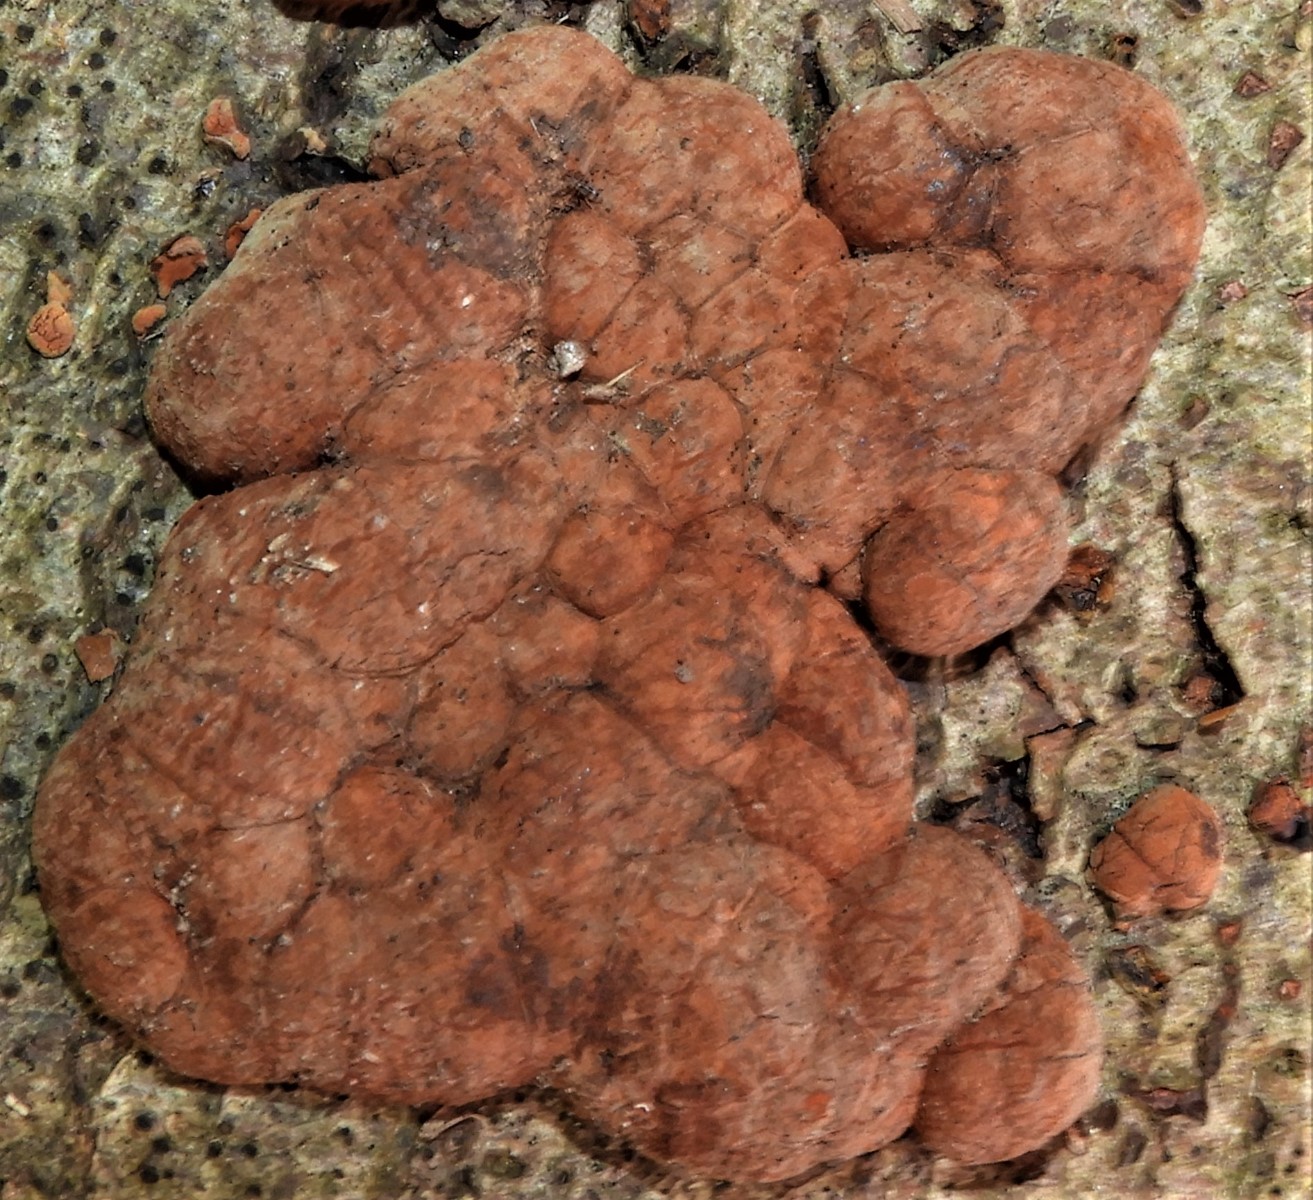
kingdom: Fungi
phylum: Ascomycota
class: Sordariomycetes
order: Xylariales
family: Hypoxylaceae
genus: Hypoxylon
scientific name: Hypoxylon fragiforme
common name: kuljordbær
